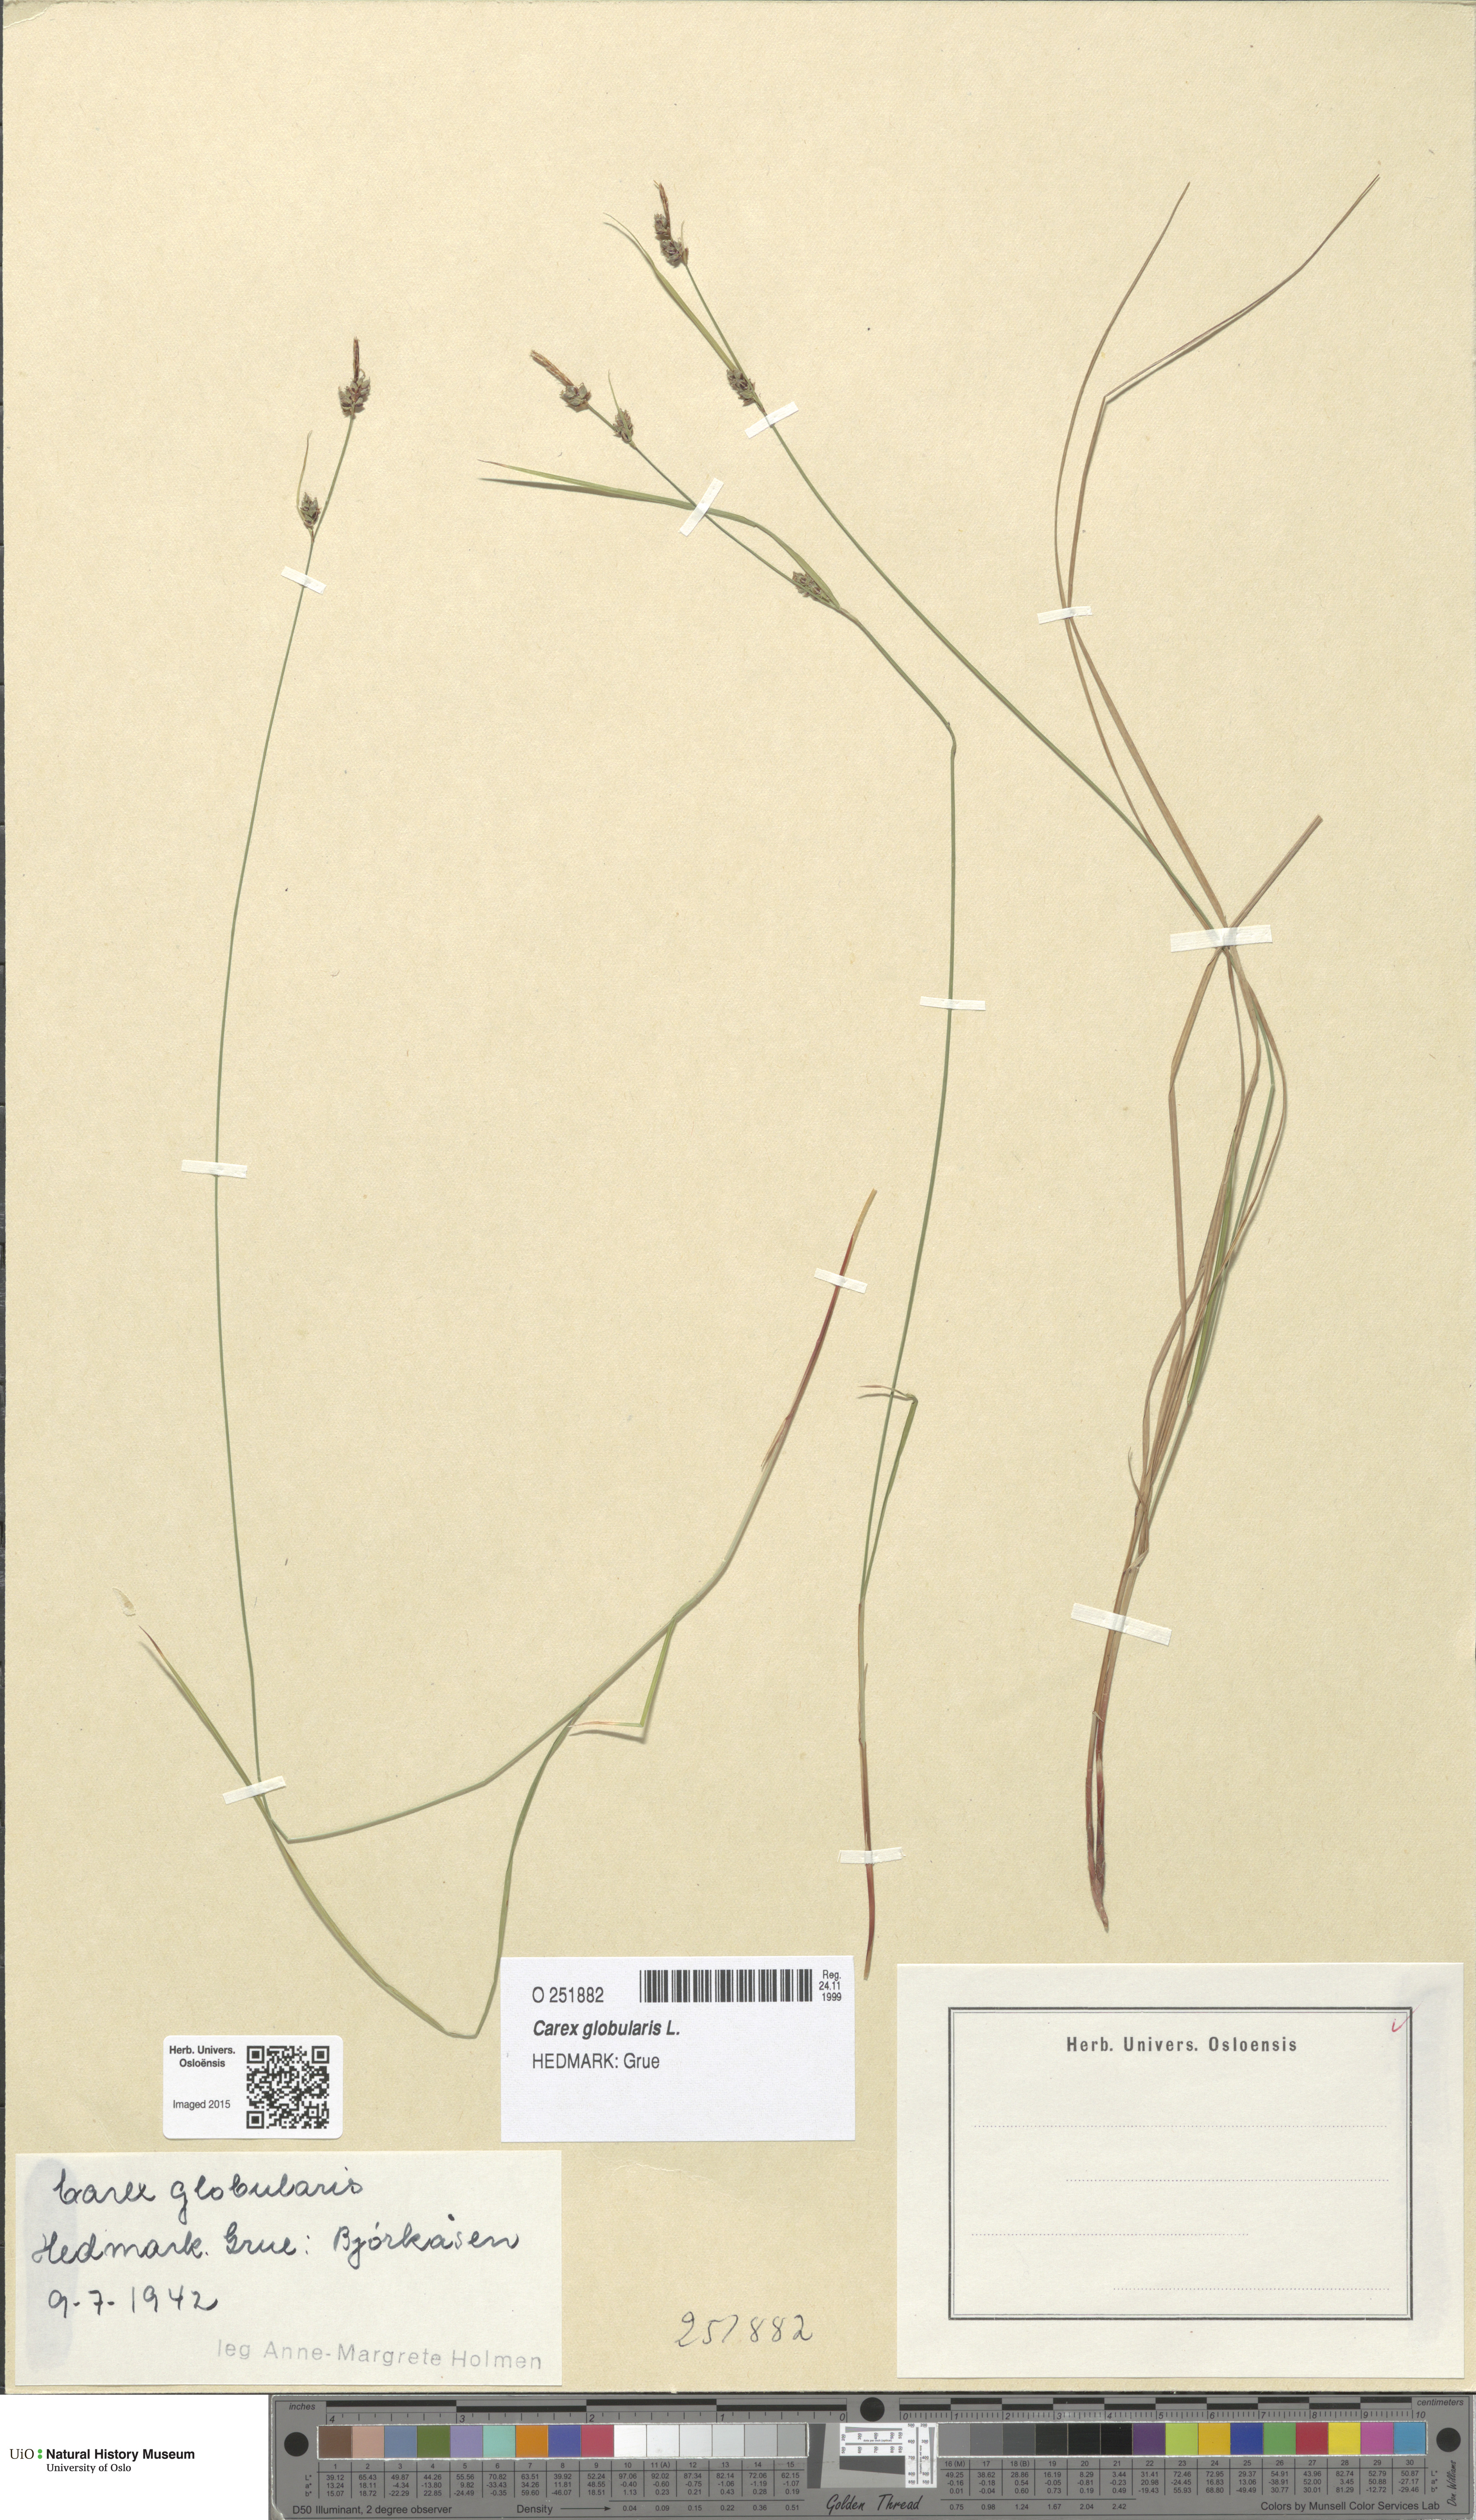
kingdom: Plantae
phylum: Tracheophyta
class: Liliopsida
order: Poales
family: Cyperaceae
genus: Carex
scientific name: Carex globularis
